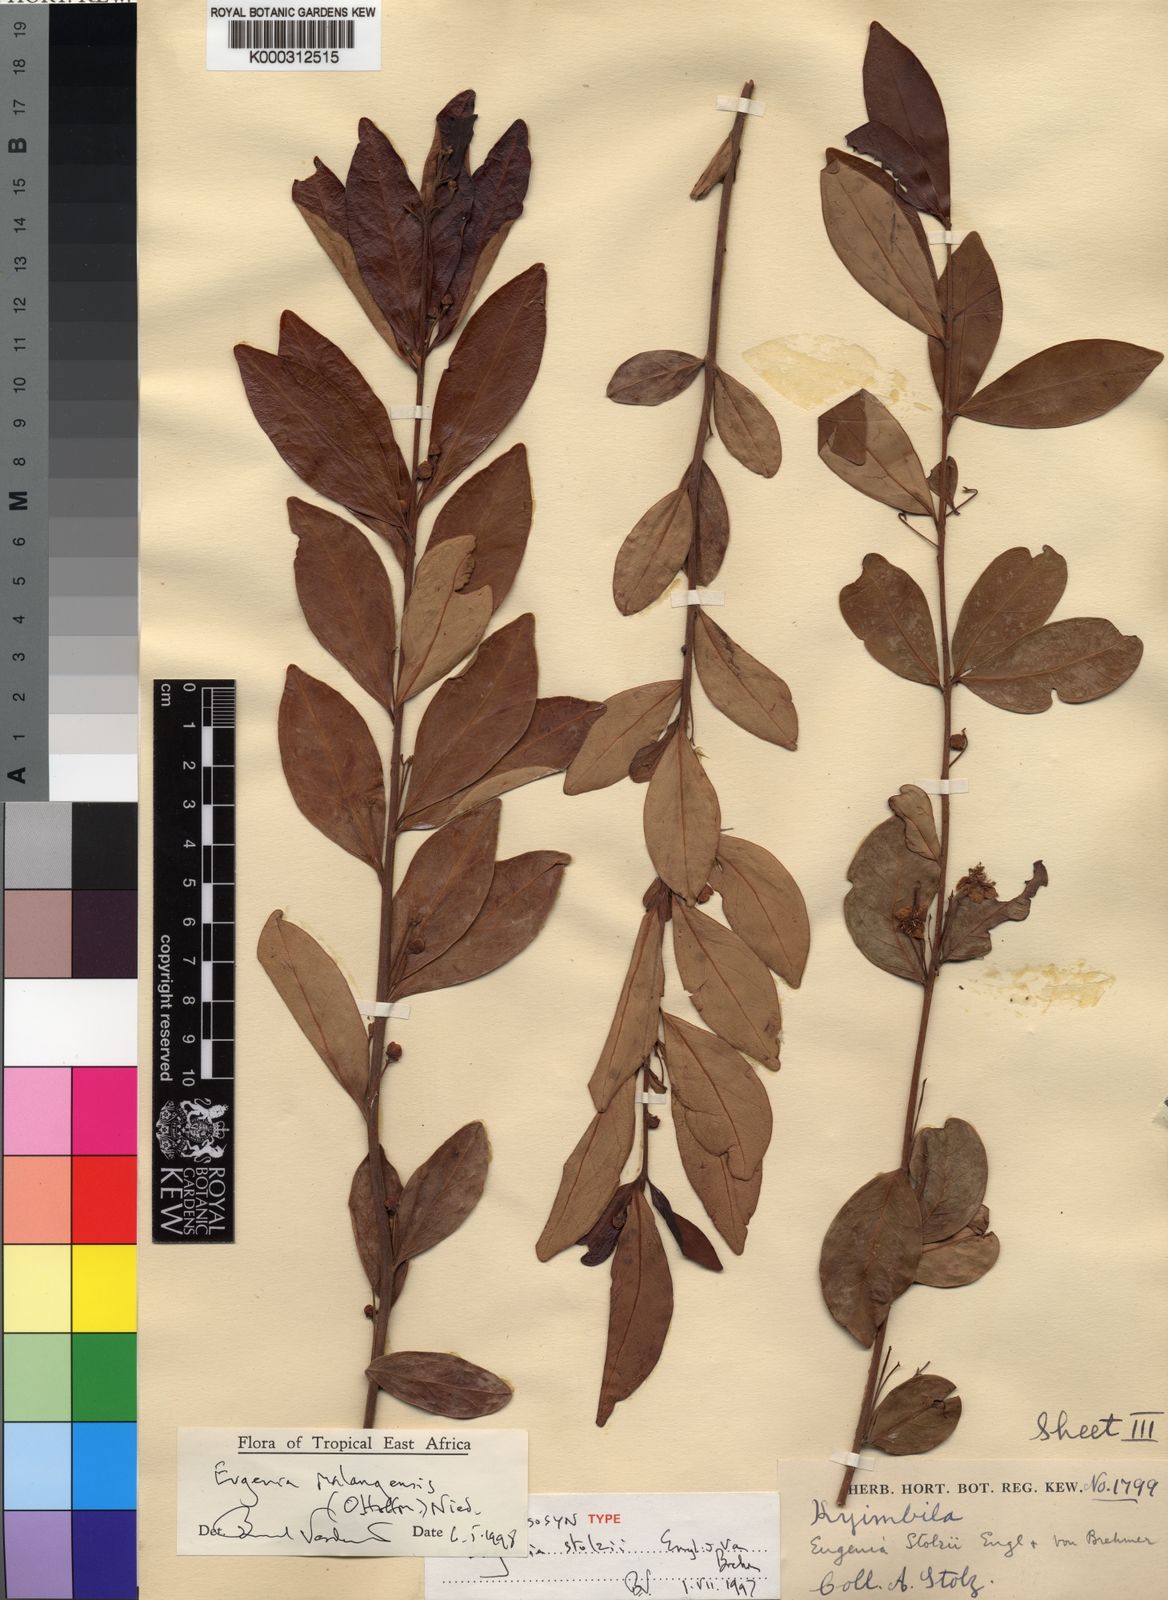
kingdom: Plantae
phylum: Tracheophyta
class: Magnoliopsida
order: Myrtales
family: Myrtaceae
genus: Eugenia
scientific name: Eugenia malangensis
